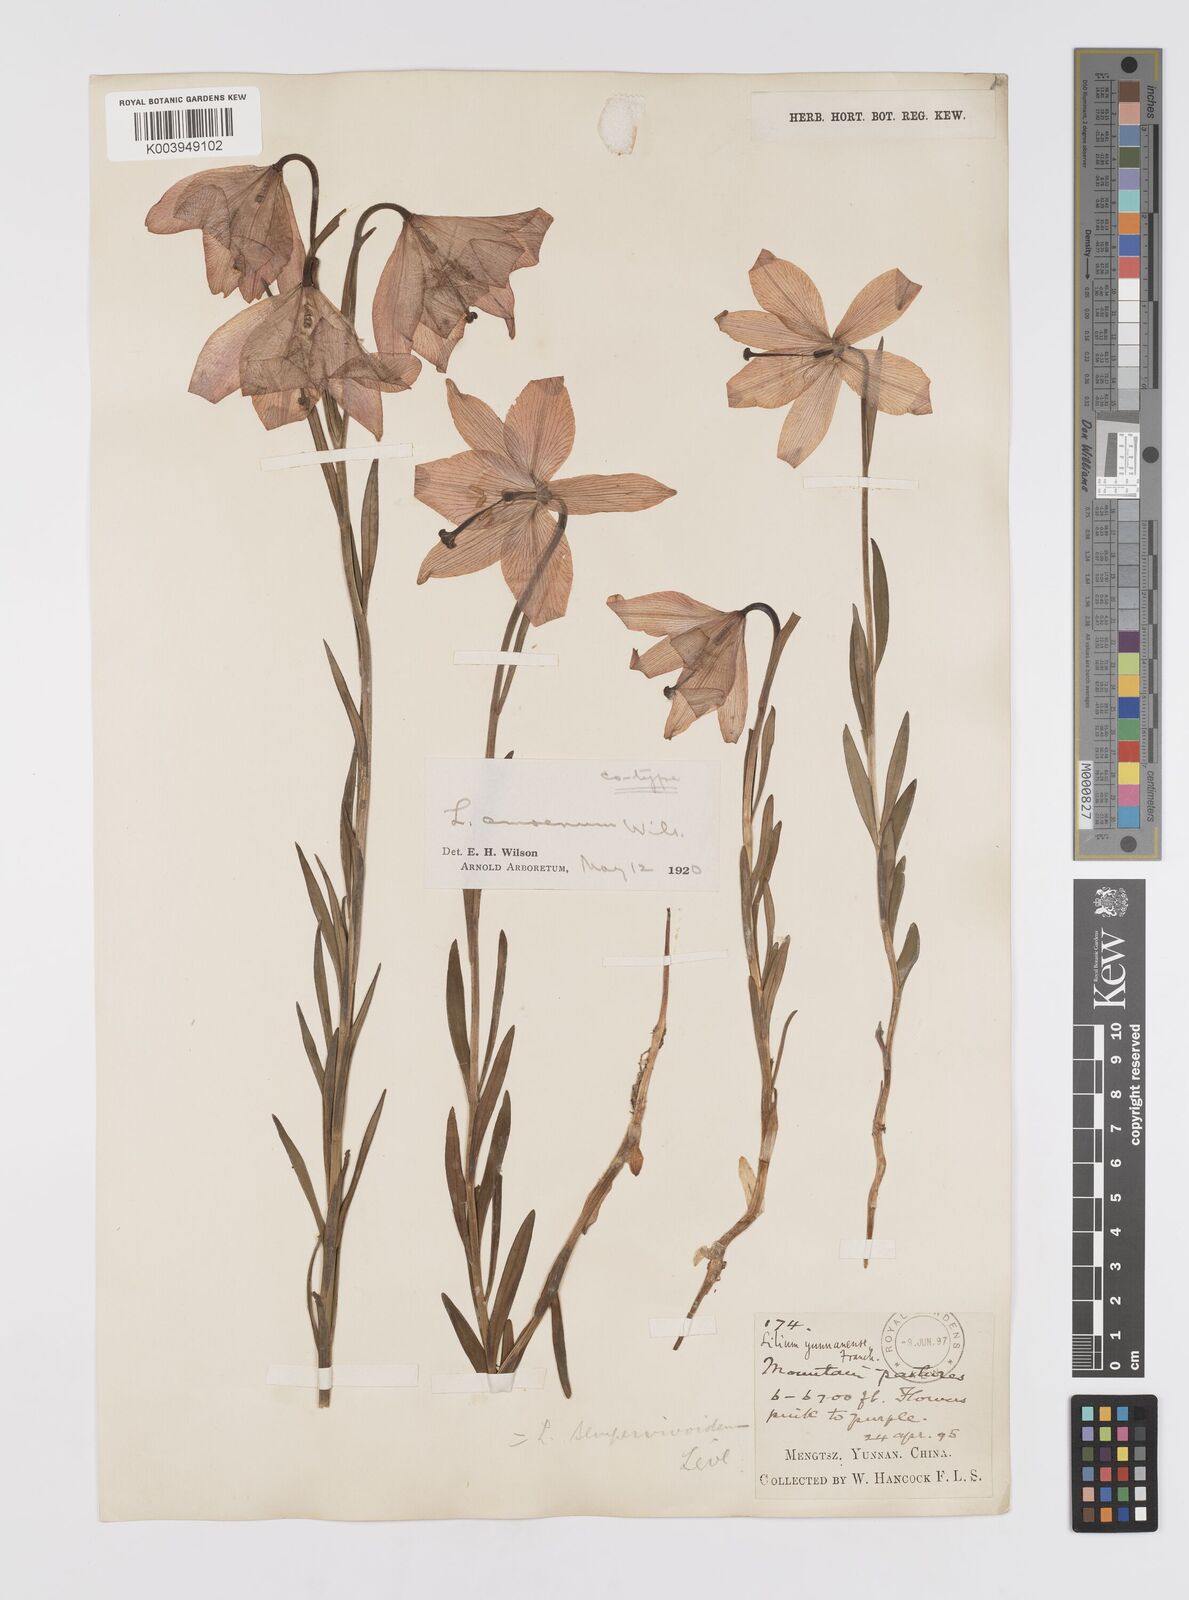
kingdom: Plantae
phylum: Tracheophyta
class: Liliopsida
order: Liliales
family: Liliaceae
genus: Lilium
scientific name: Lilium amoenum
